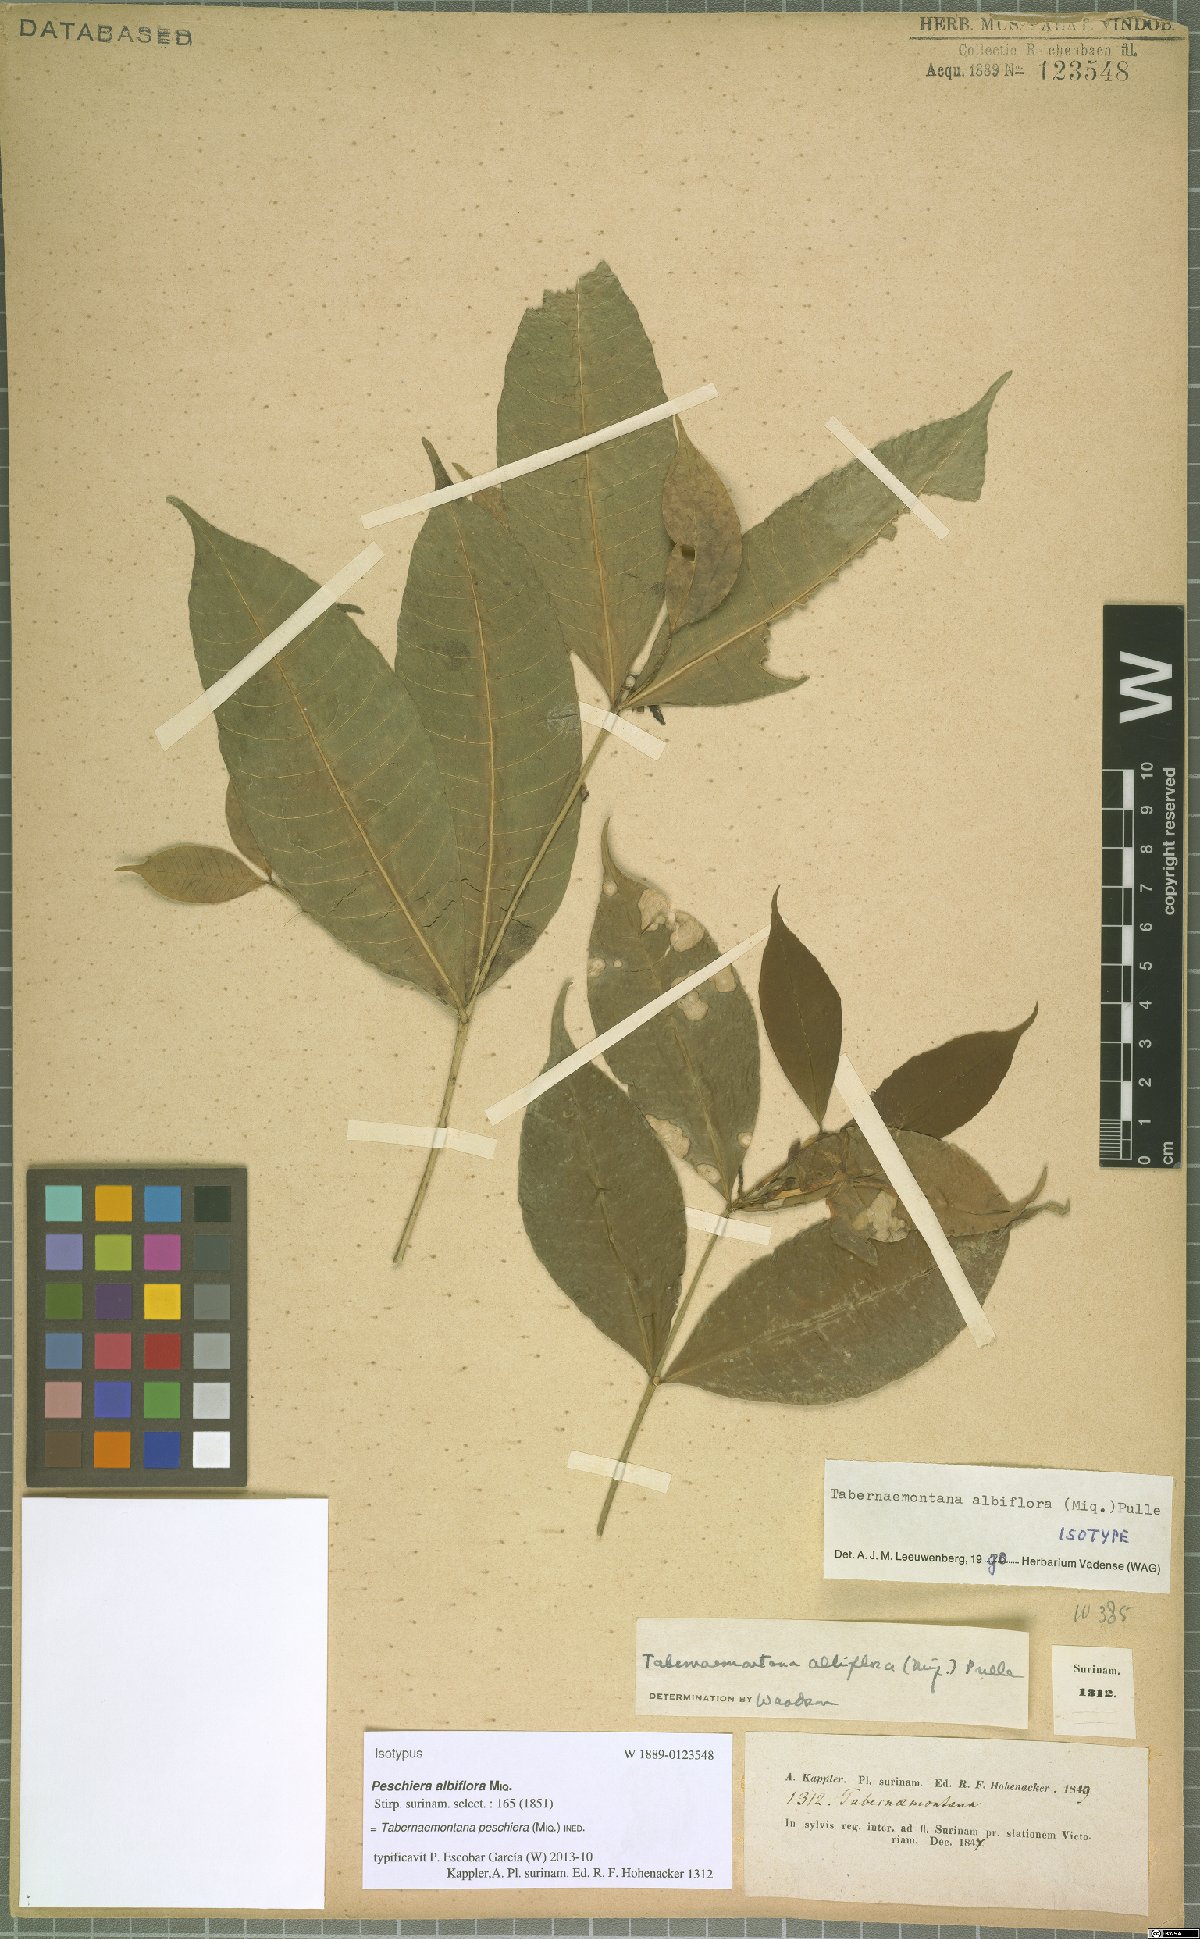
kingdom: Plantae
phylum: Tracheophyta
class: Magnoliopsida
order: Gentianales
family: Apocynaceae
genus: Tabernaemontana
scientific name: Tabernaemontana peschiera
